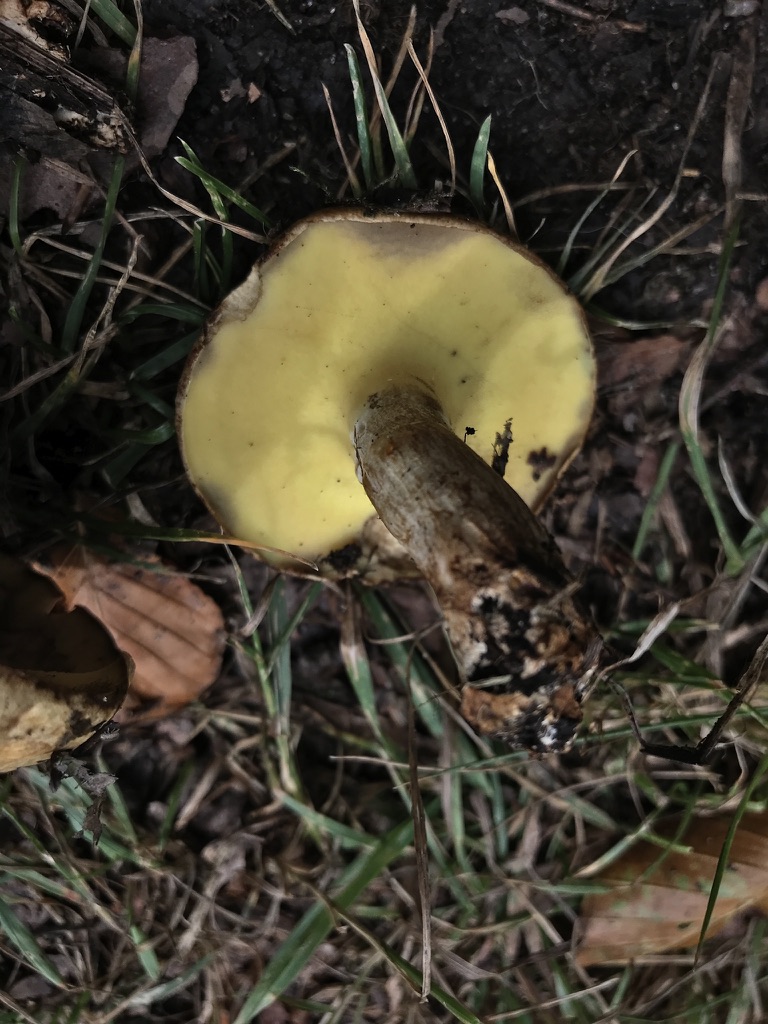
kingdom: Fungi
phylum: Basidiomycota
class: Agaricomycetes
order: Boletales
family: Paxillaceae
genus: Gyrodon
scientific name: Gyrodon lividus
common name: ellerørhat
